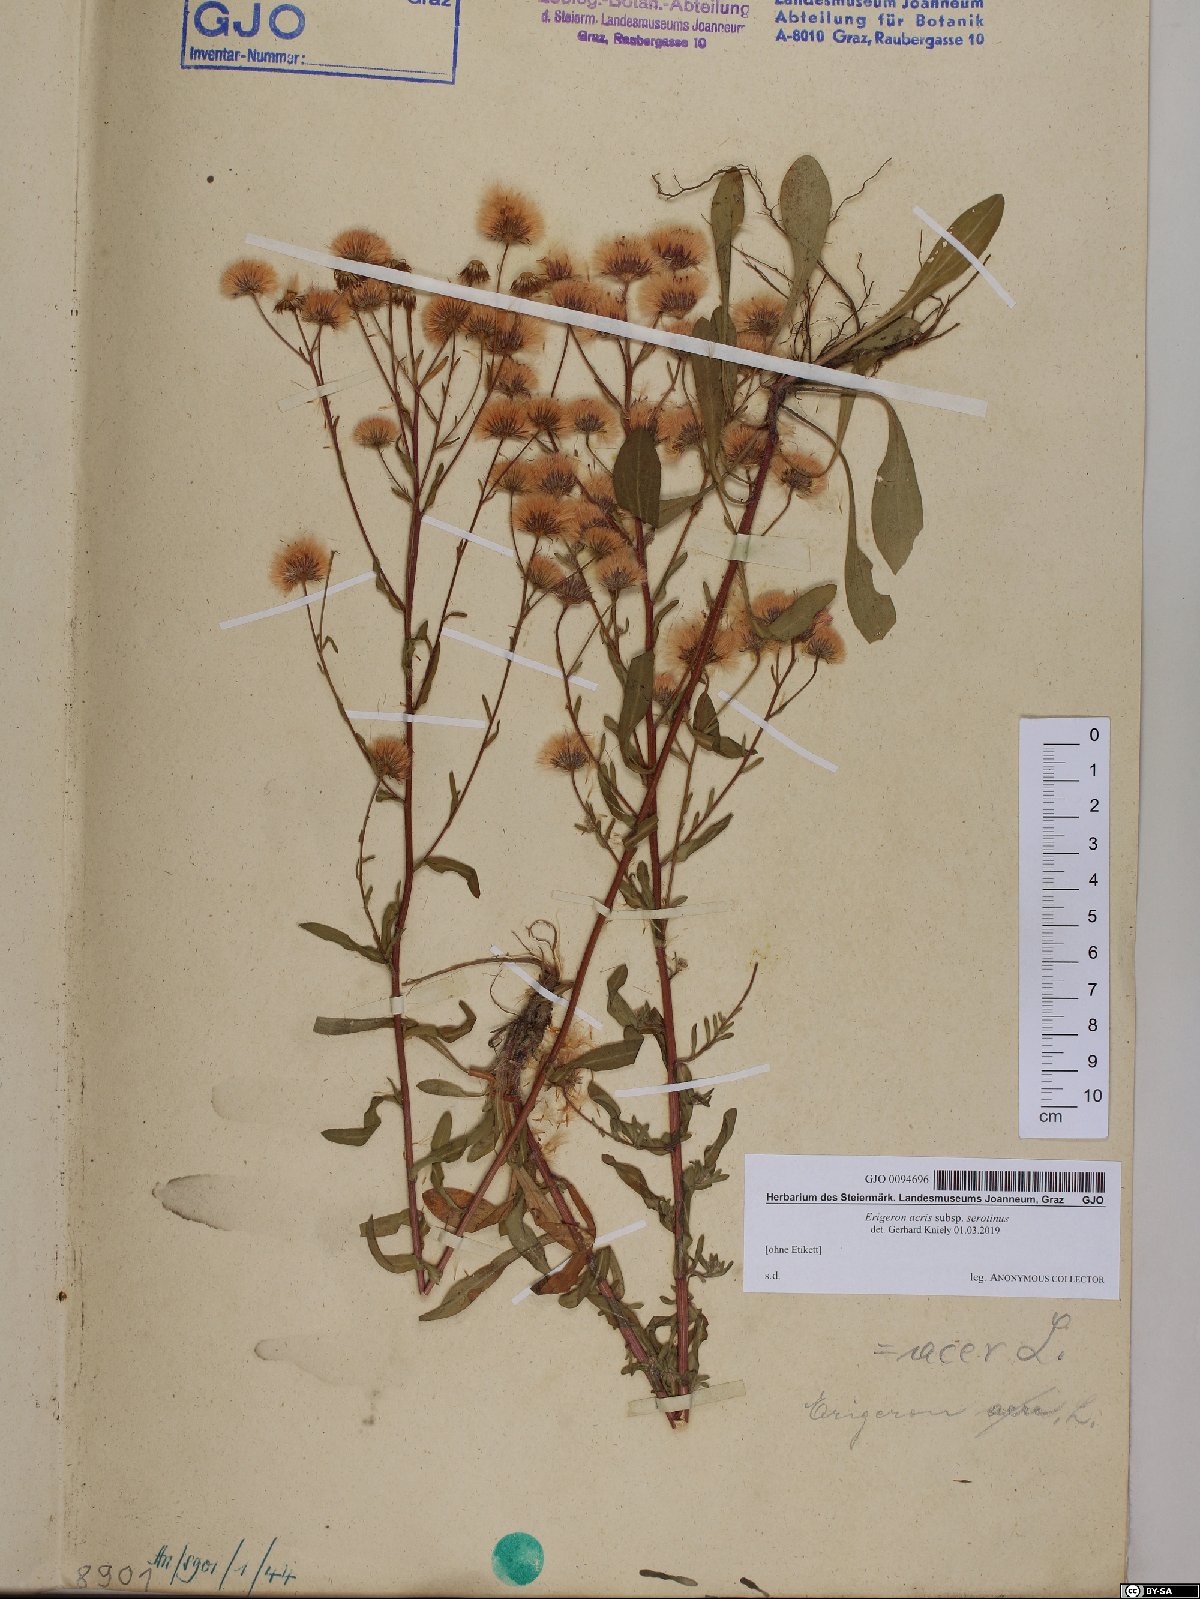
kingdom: Plantae
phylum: Tracheophyta
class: Magnoliopsida
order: Asterales
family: Asteraceae
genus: Erigeron
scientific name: Erigeron muralis
